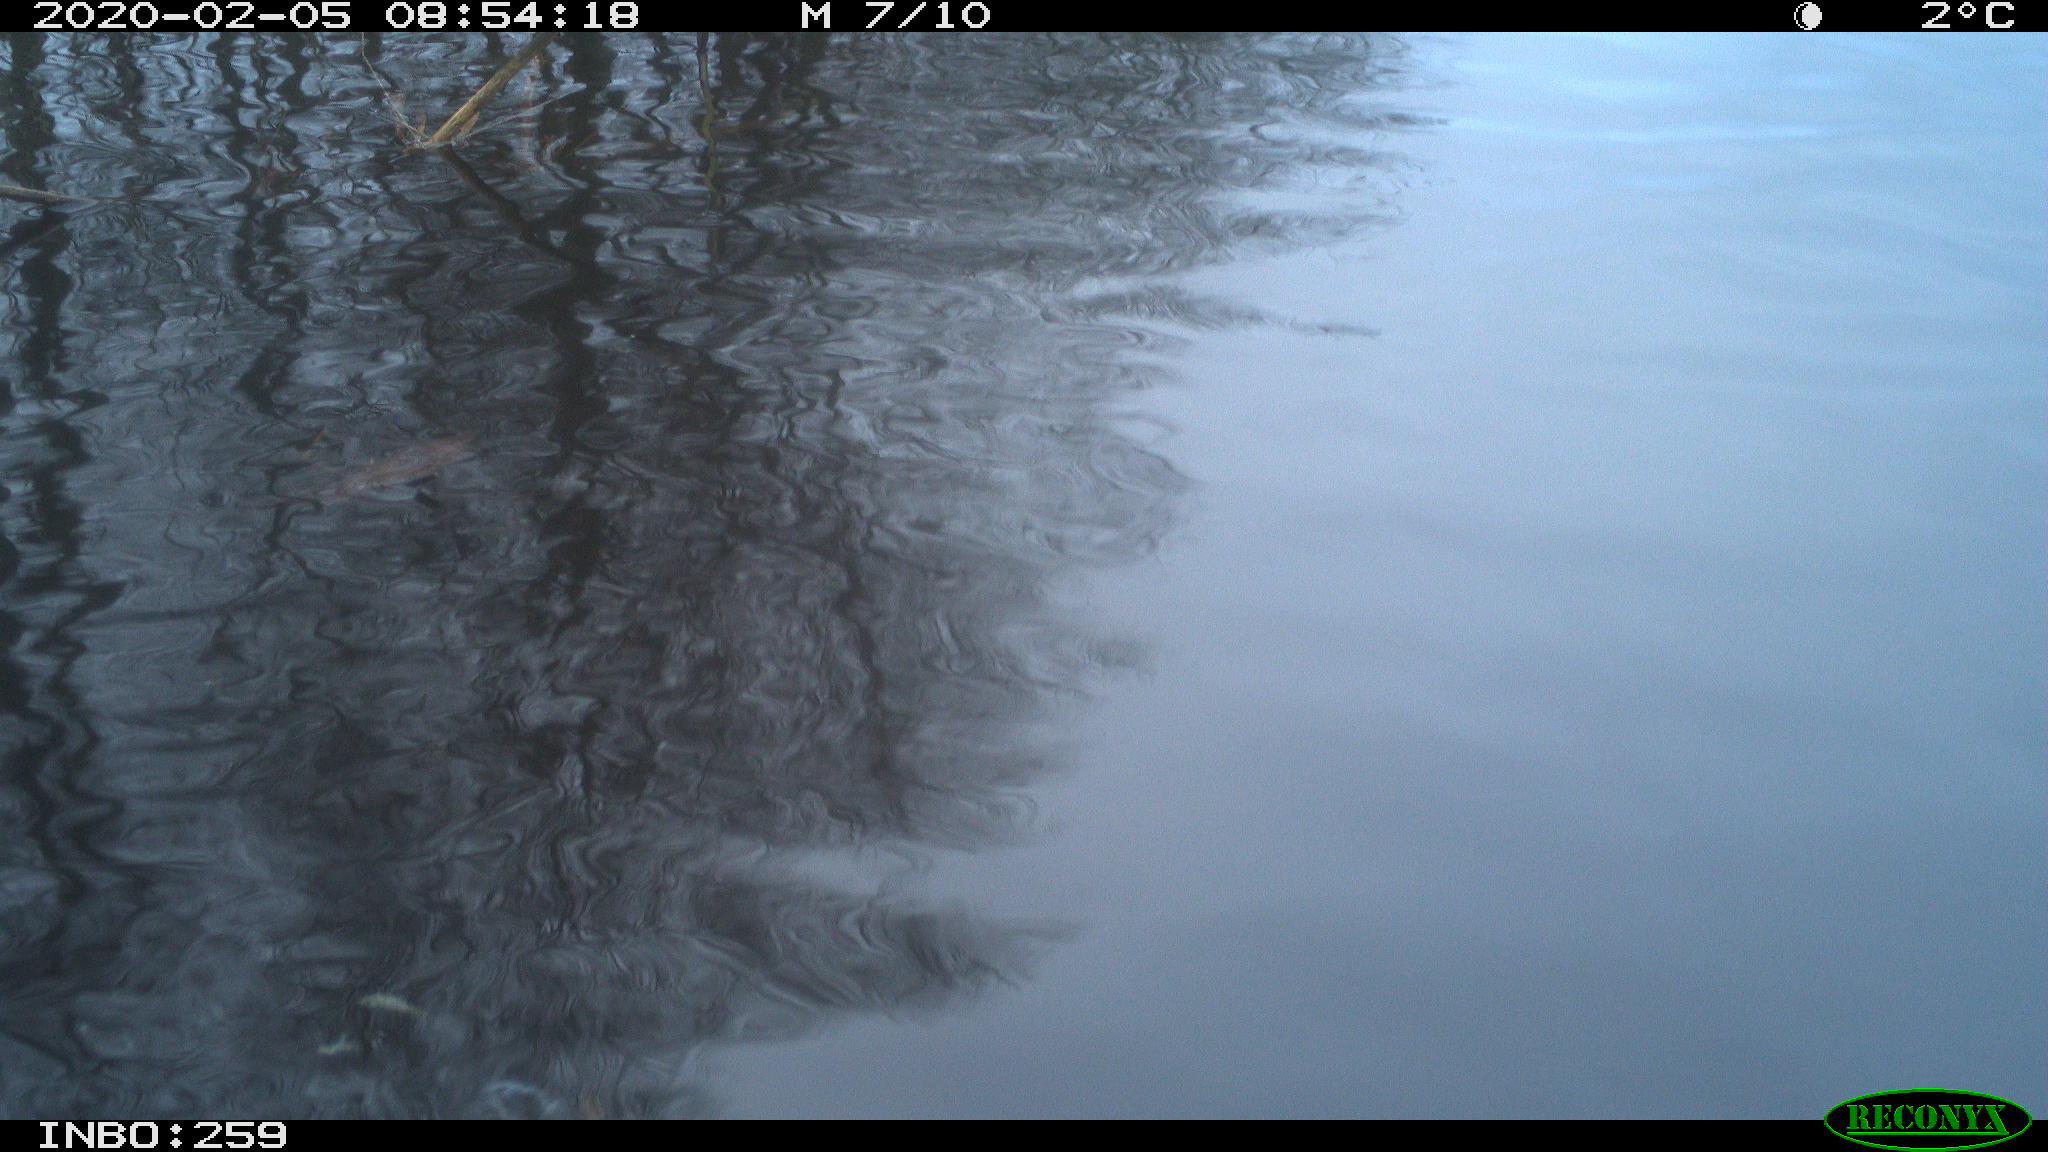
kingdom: Animalia
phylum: Chordata
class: Aves
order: Gruiformes
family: Rallidae
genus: Gallinula
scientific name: Gallinula chloropus
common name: Common moorhen
